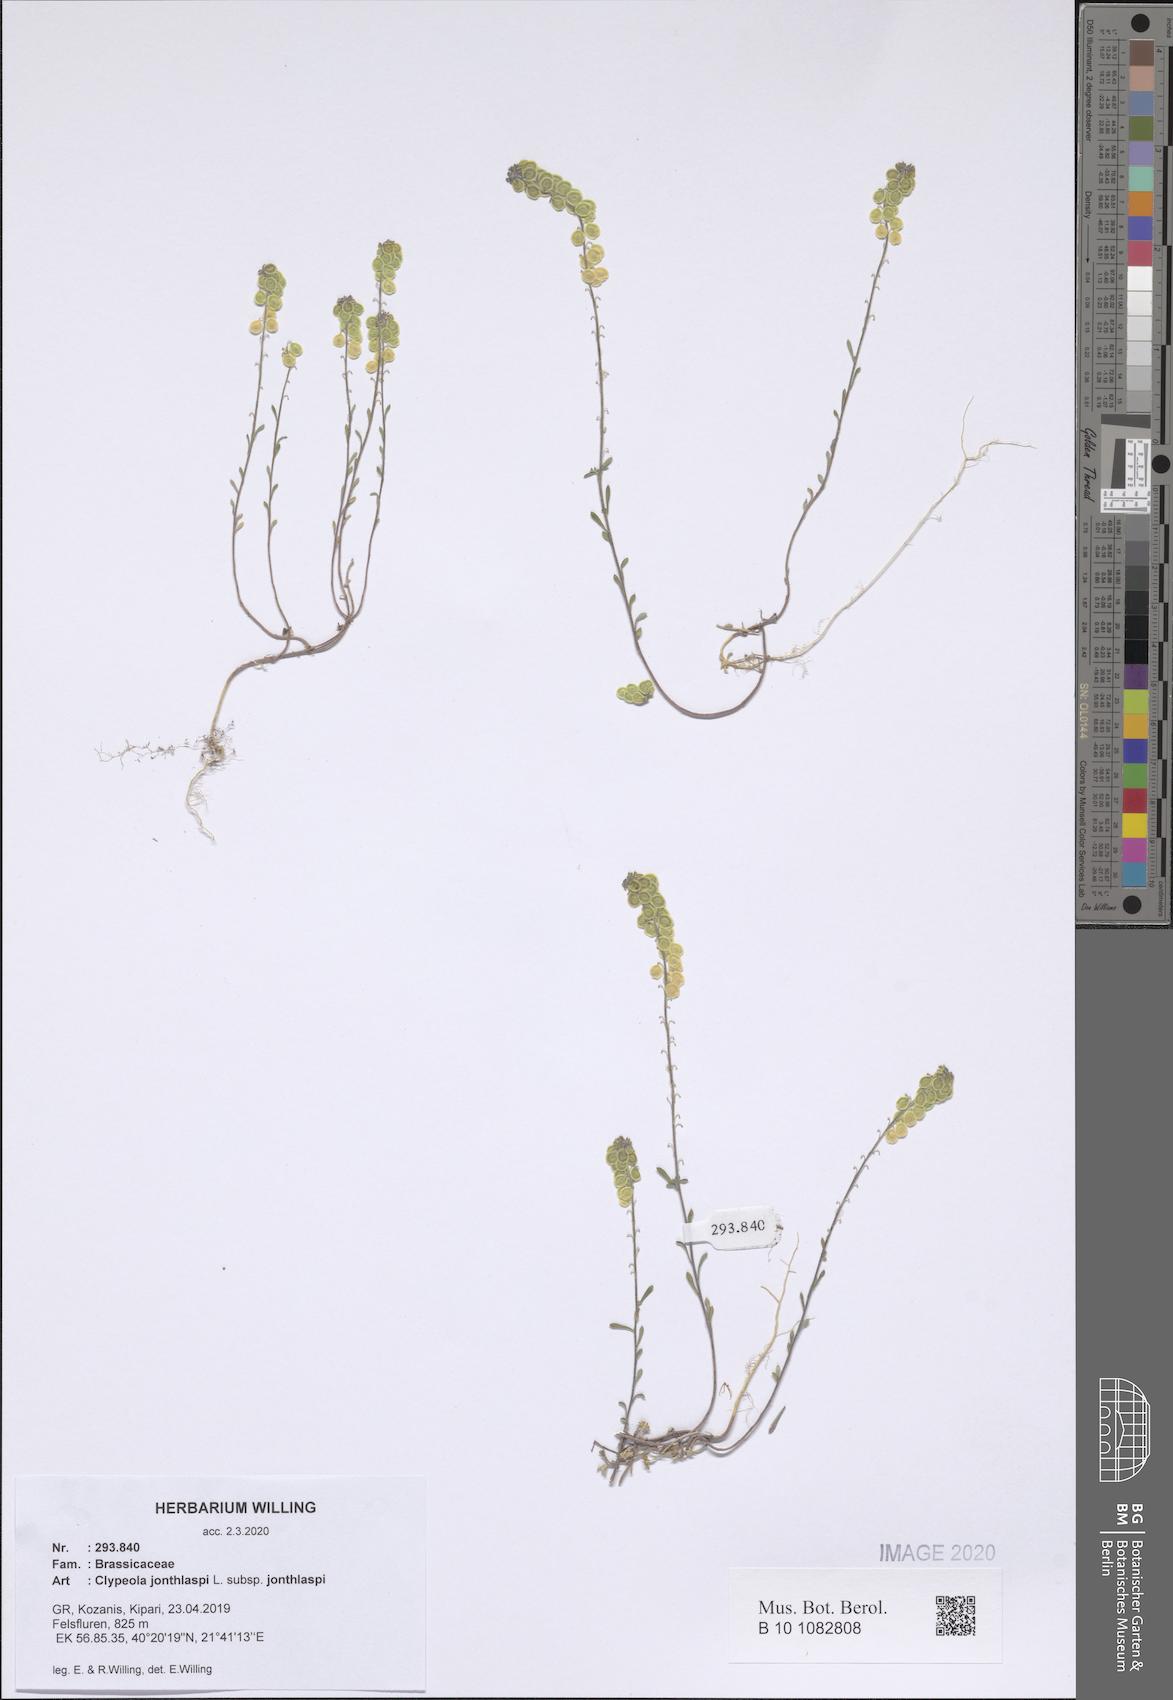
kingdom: Plantae
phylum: Tracheophyta
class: Magnoliopsida
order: Brassicales
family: Brassicaceae
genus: Clypeola
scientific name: Clypeola jonthlaspi
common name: Disk cress
